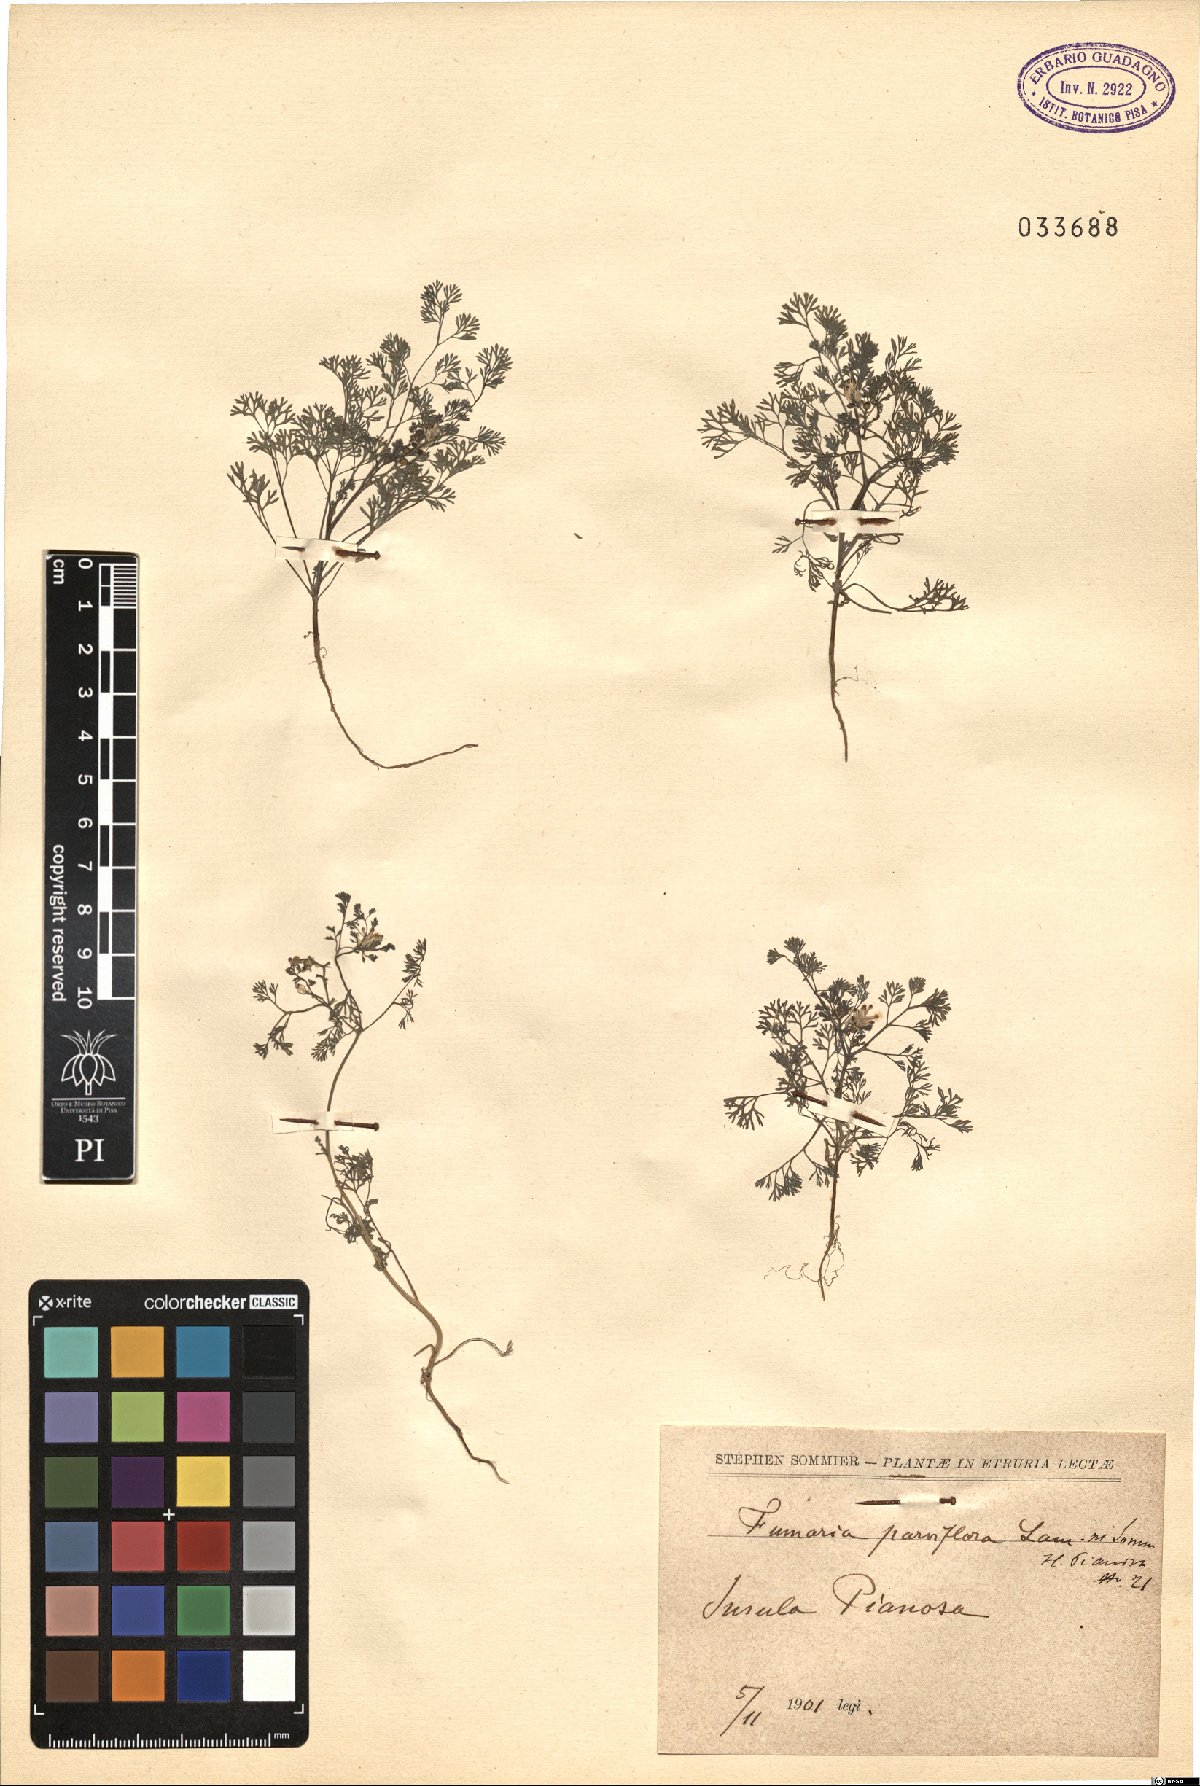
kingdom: Plantae
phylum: Tracheophyta
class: Magnoliopsida
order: Ranunculales
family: Papaveraceae
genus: Fumaria
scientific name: Fumaria parviflora
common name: Fine-leaved fumitory
